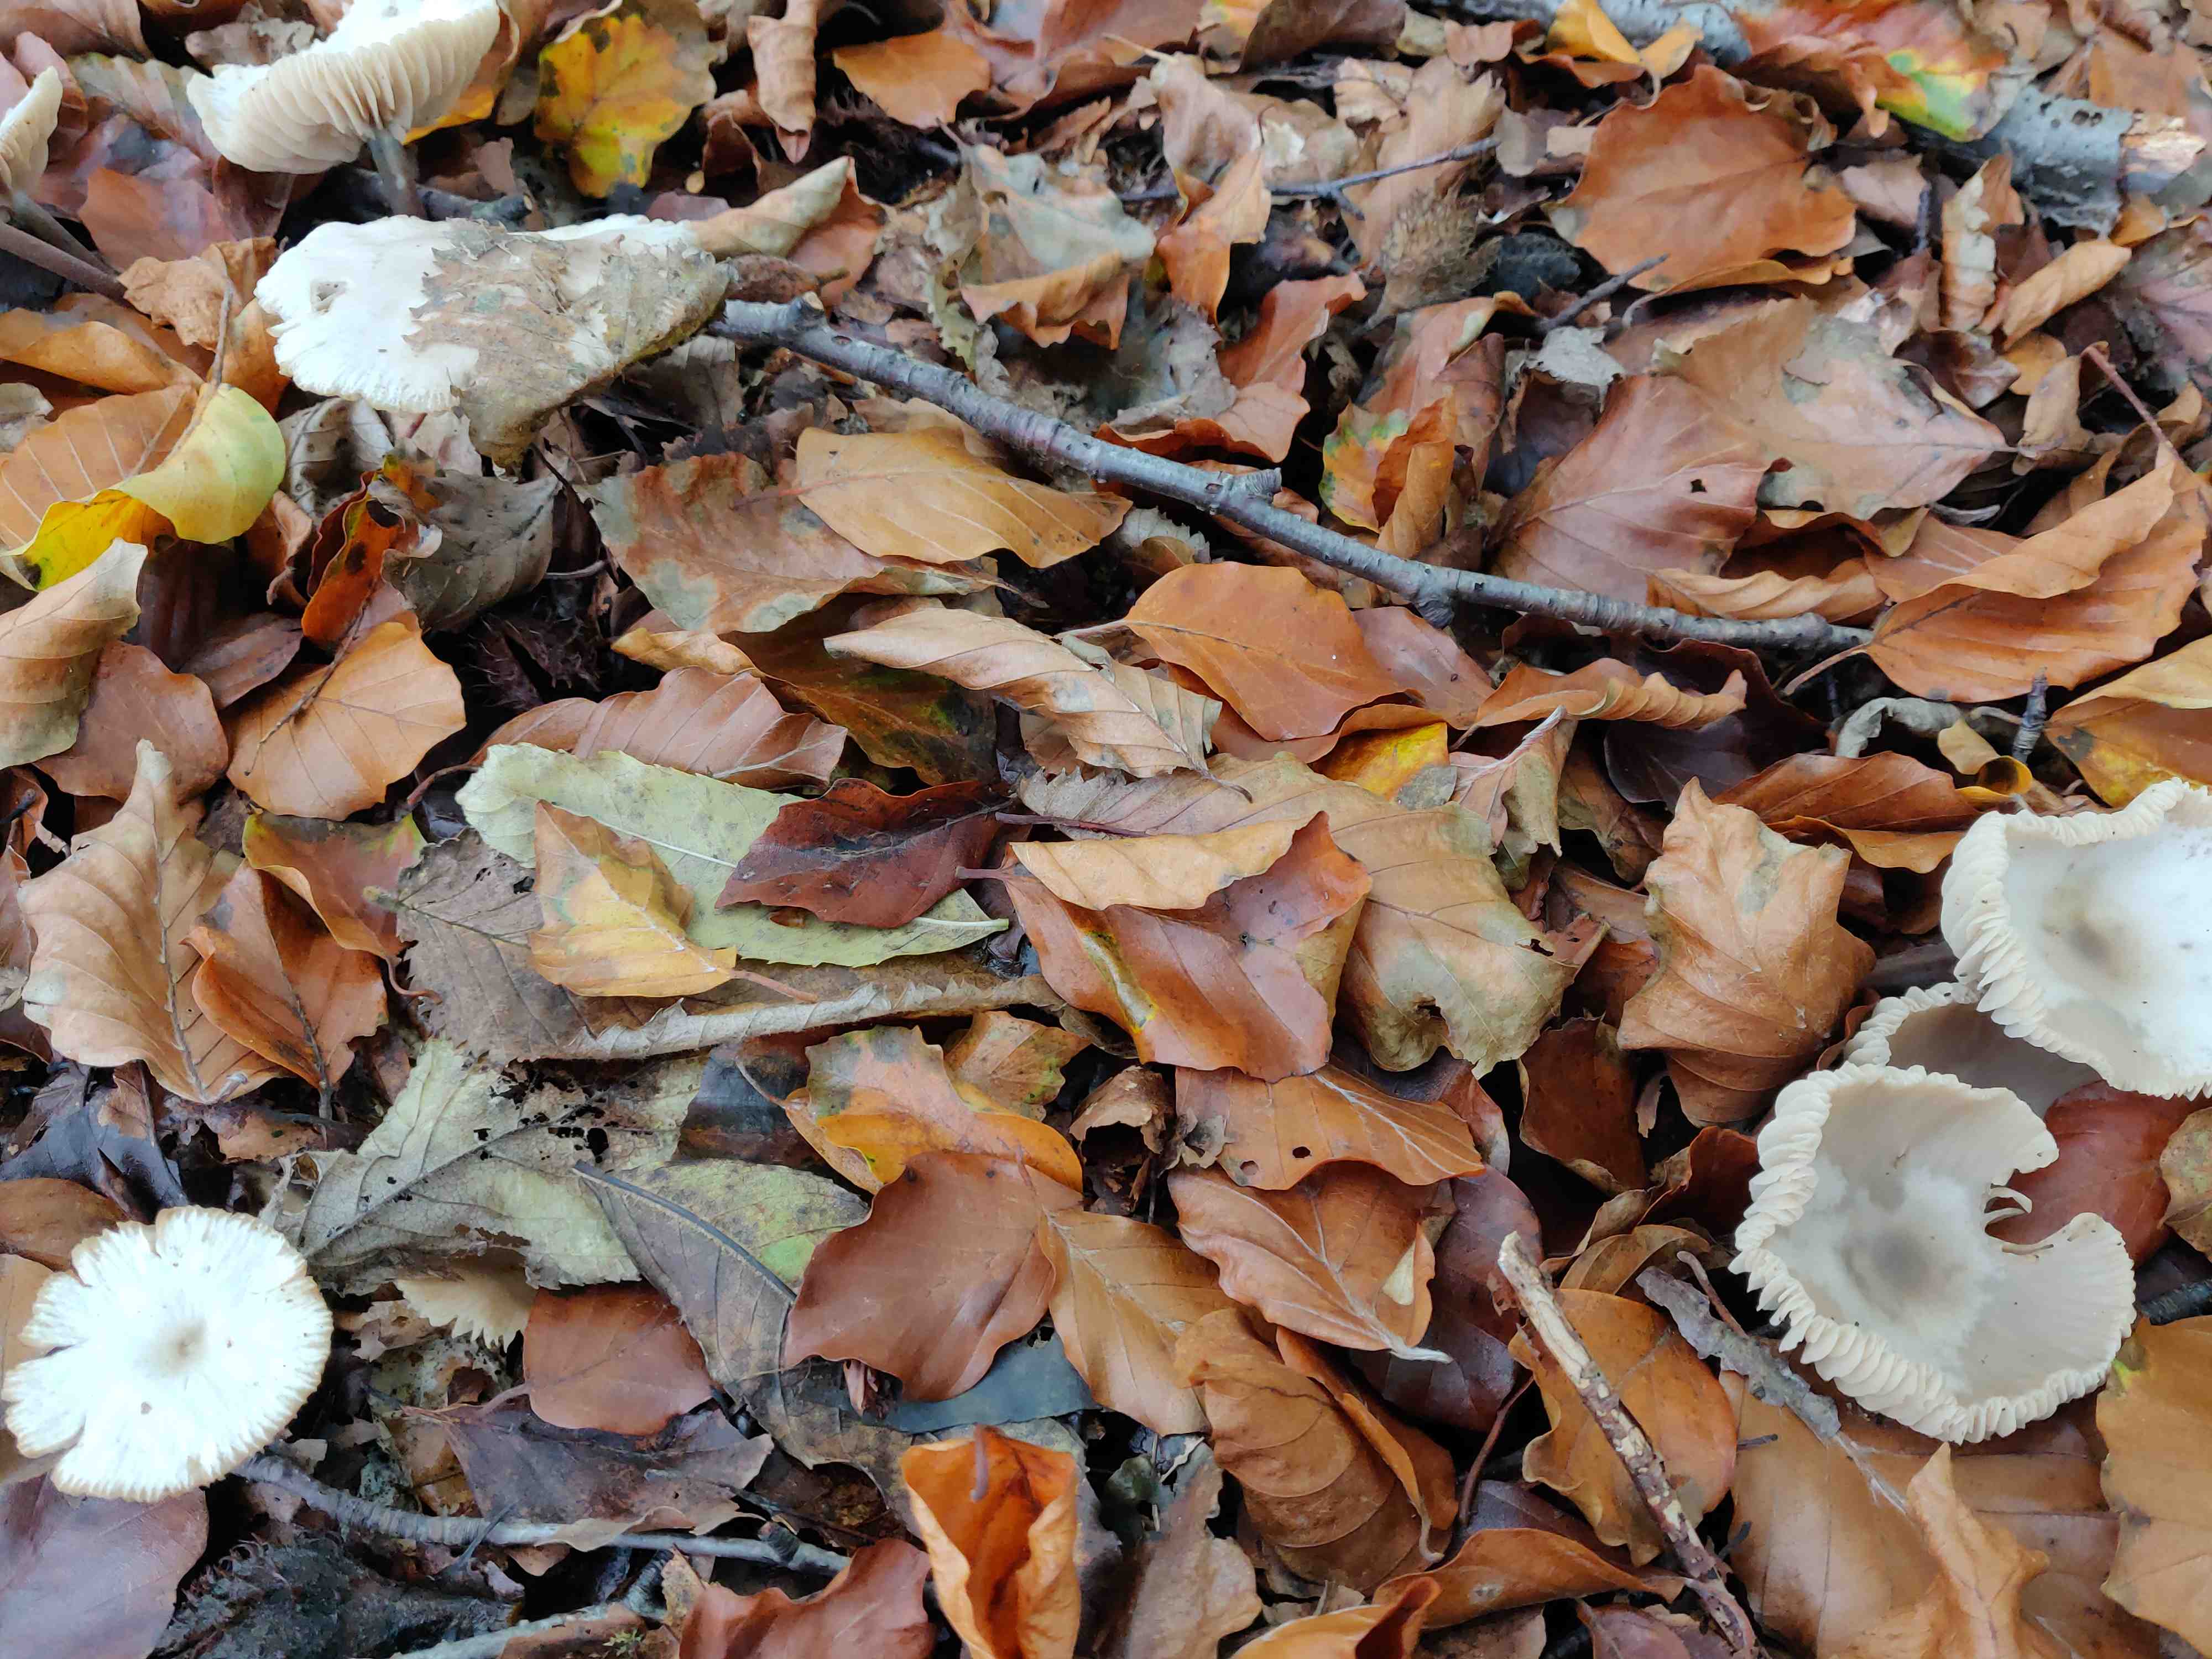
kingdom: Fungi
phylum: Basidiomycota
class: Agaricomycetes
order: Agaricales
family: Marasmiaceae
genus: Marasmius
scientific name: Marasmius wynneae
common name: hvælvet bruskhat
